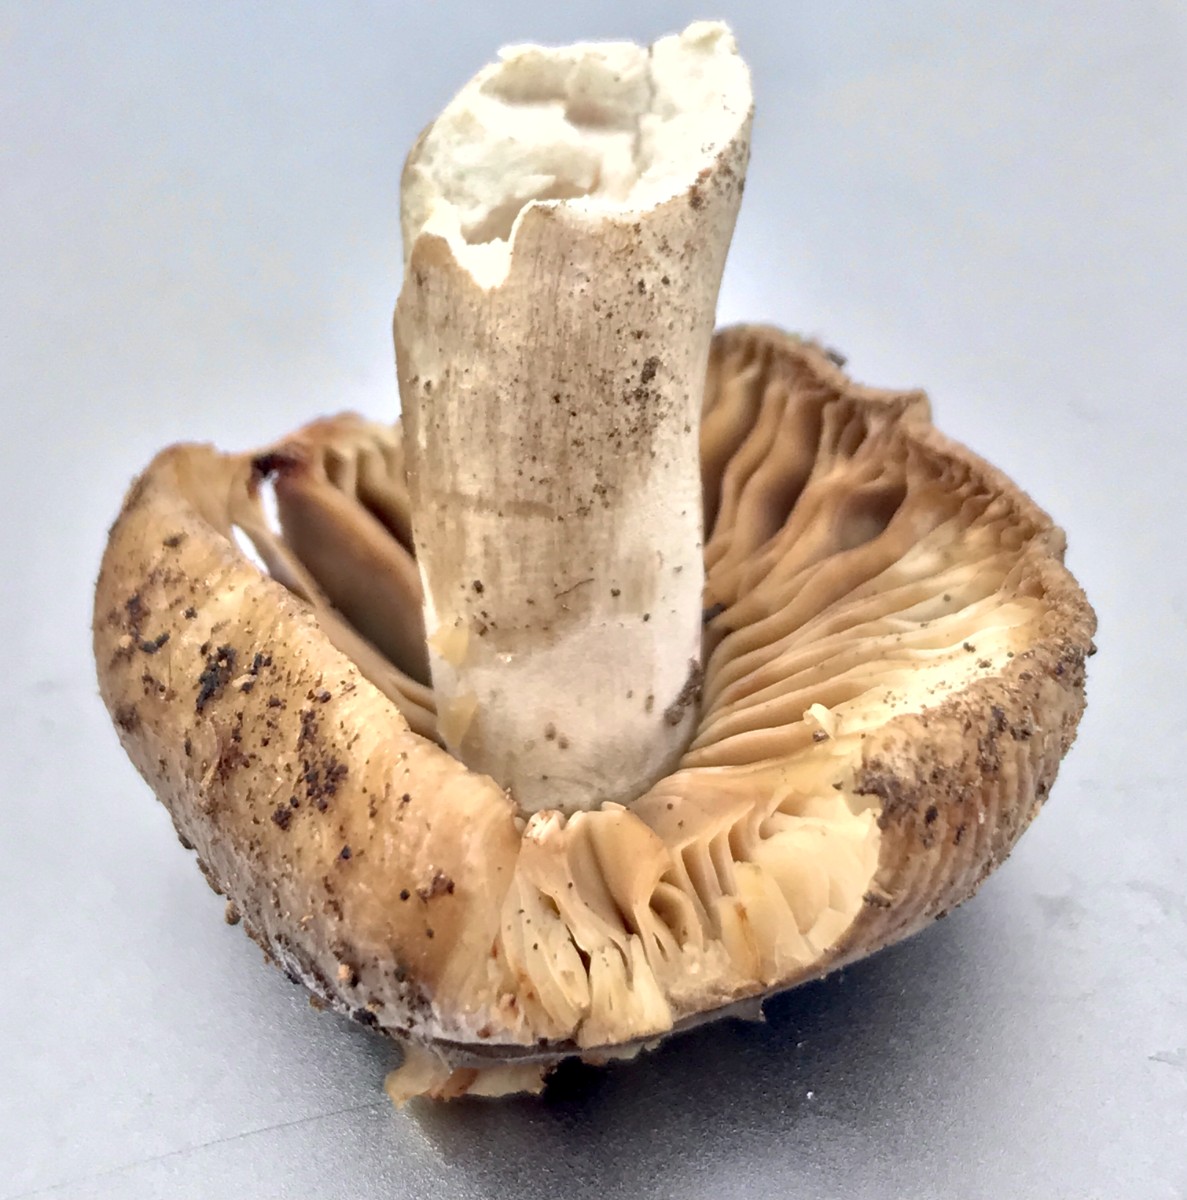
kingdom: Fungi
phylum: Basidiomycota
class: Agaricomycetes
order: Russulales
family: Russulaceae
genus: Russula
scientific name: Russula
